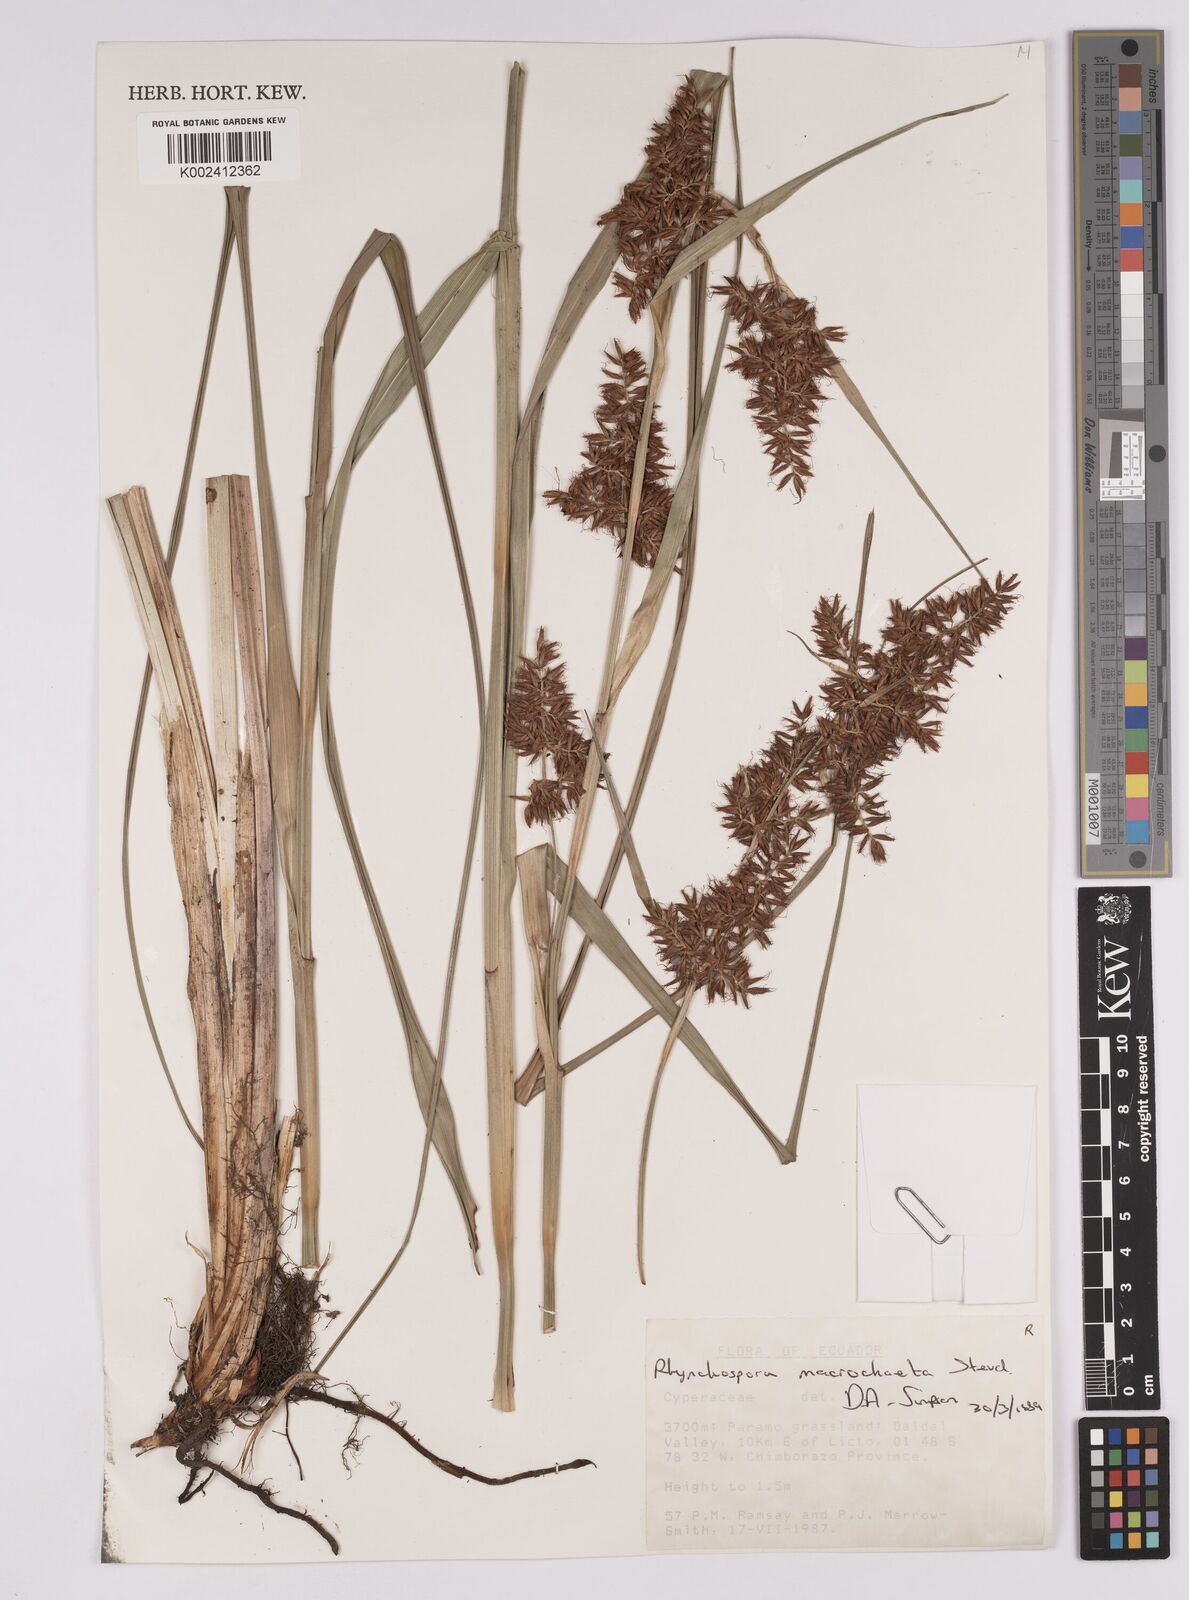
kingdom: Plantae
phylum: Tracheophyta
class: Liliopsida
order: Poales
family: Cyperaceae
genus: Rhynchospora
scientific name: Rhynchospora macrochaeta
